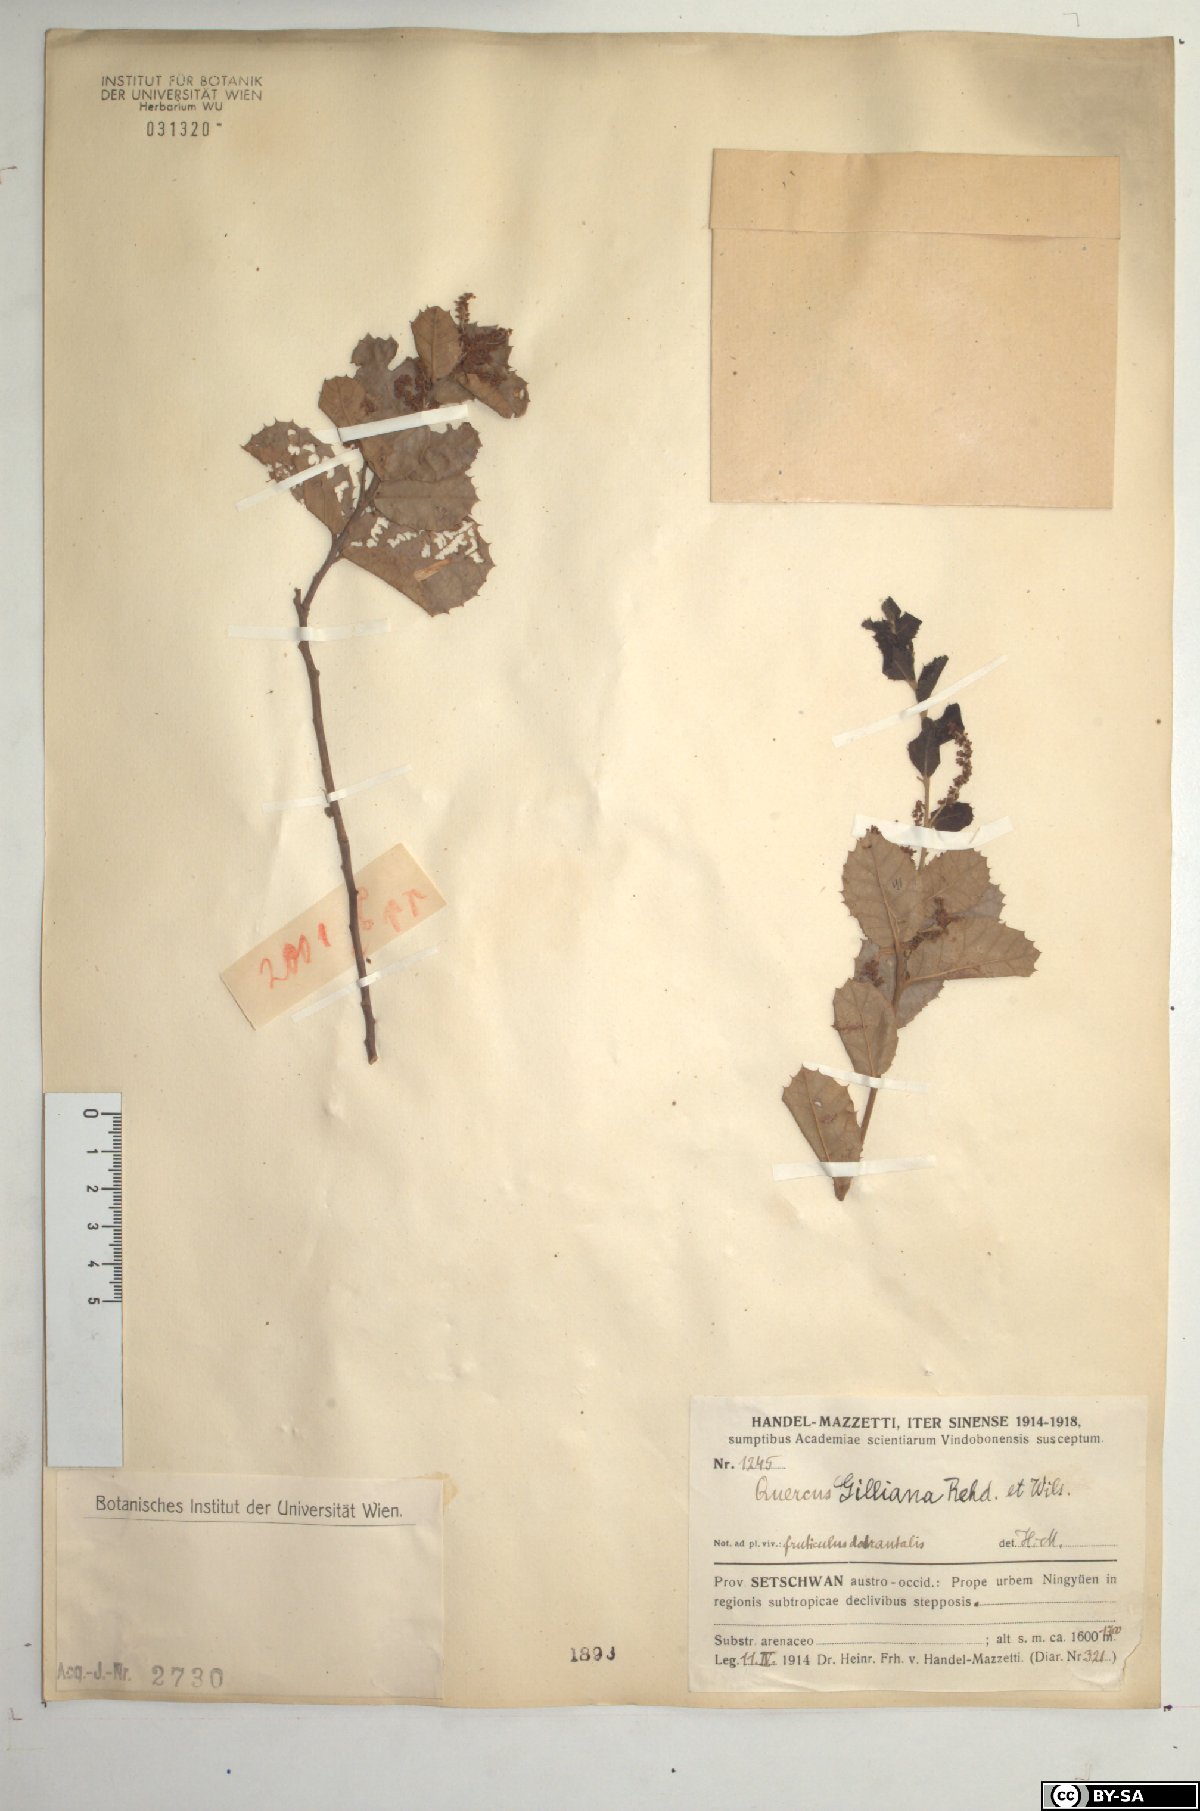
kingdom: Plantae
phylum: Tracheophyta
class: Magnoliopsida
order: Fagales
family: Fagaceae
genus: Quercus
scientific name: Quercus spinosa
